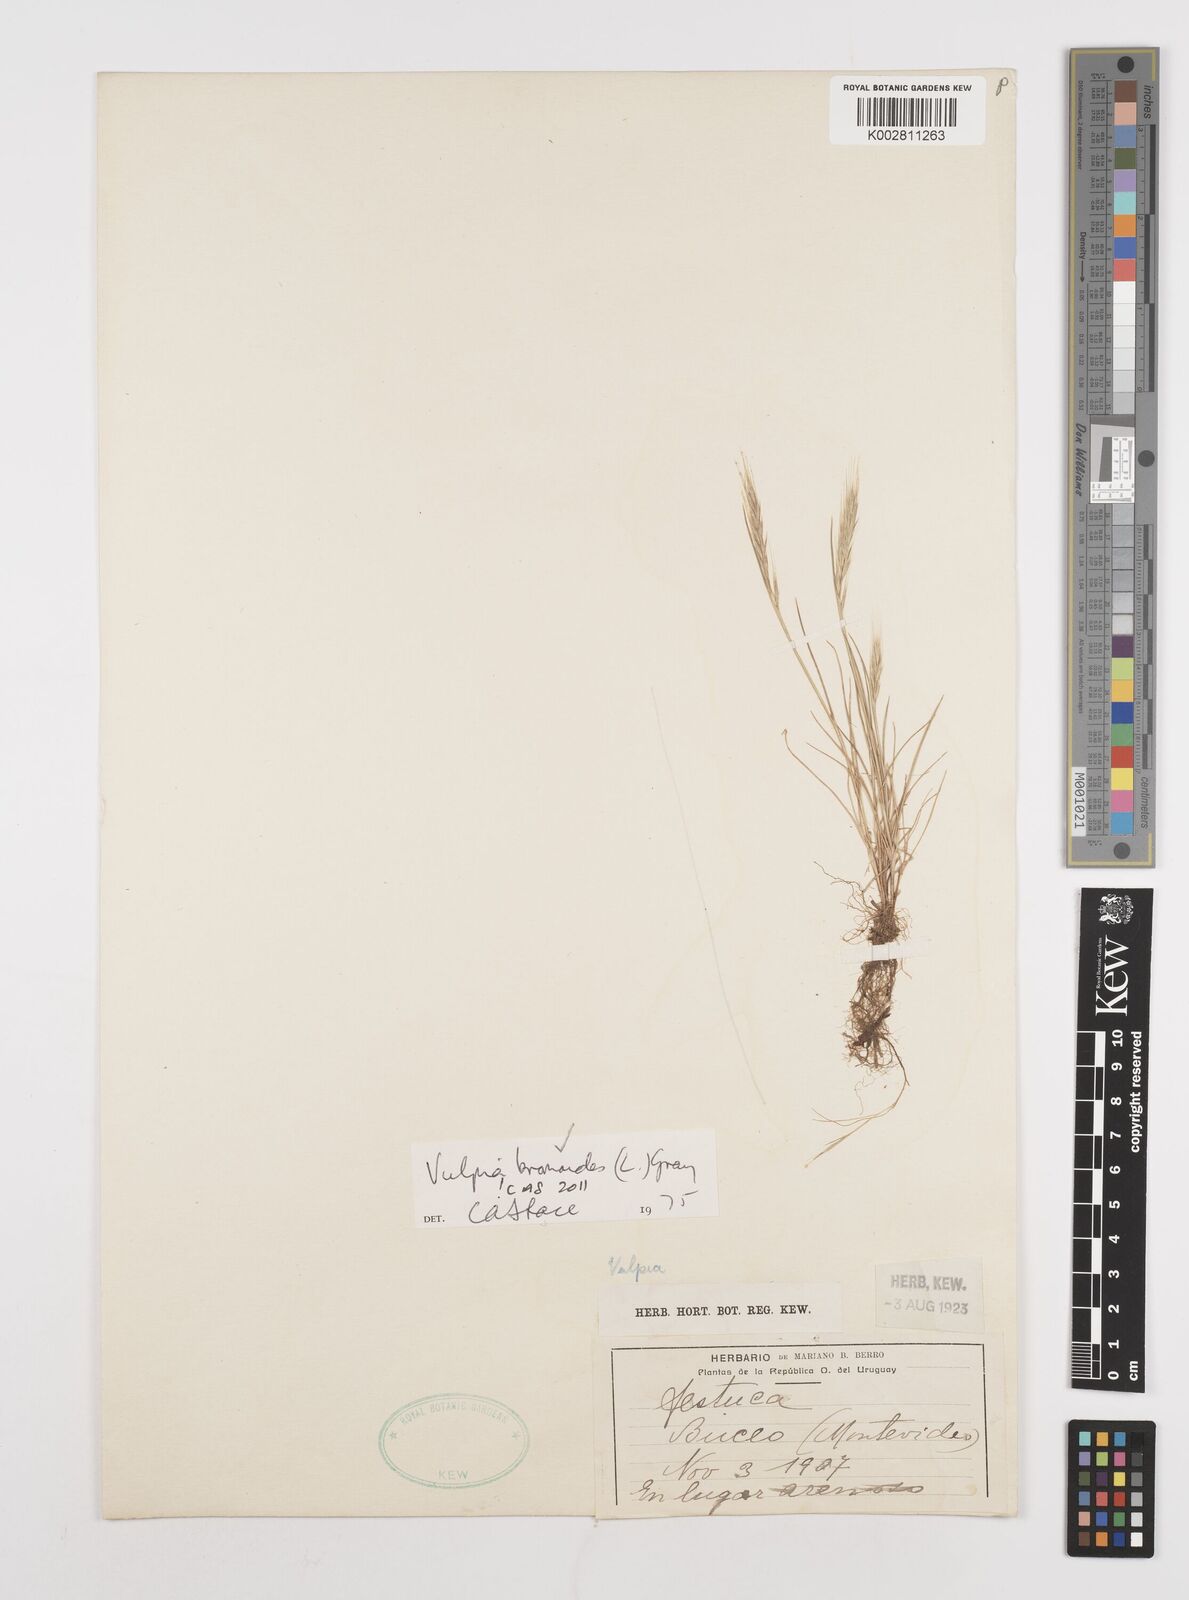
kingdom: Plantae
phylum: Tracheophyta
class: Liliopsida
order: Poales
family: Poaceae
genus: Festuca
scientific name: Festuca bromoides
